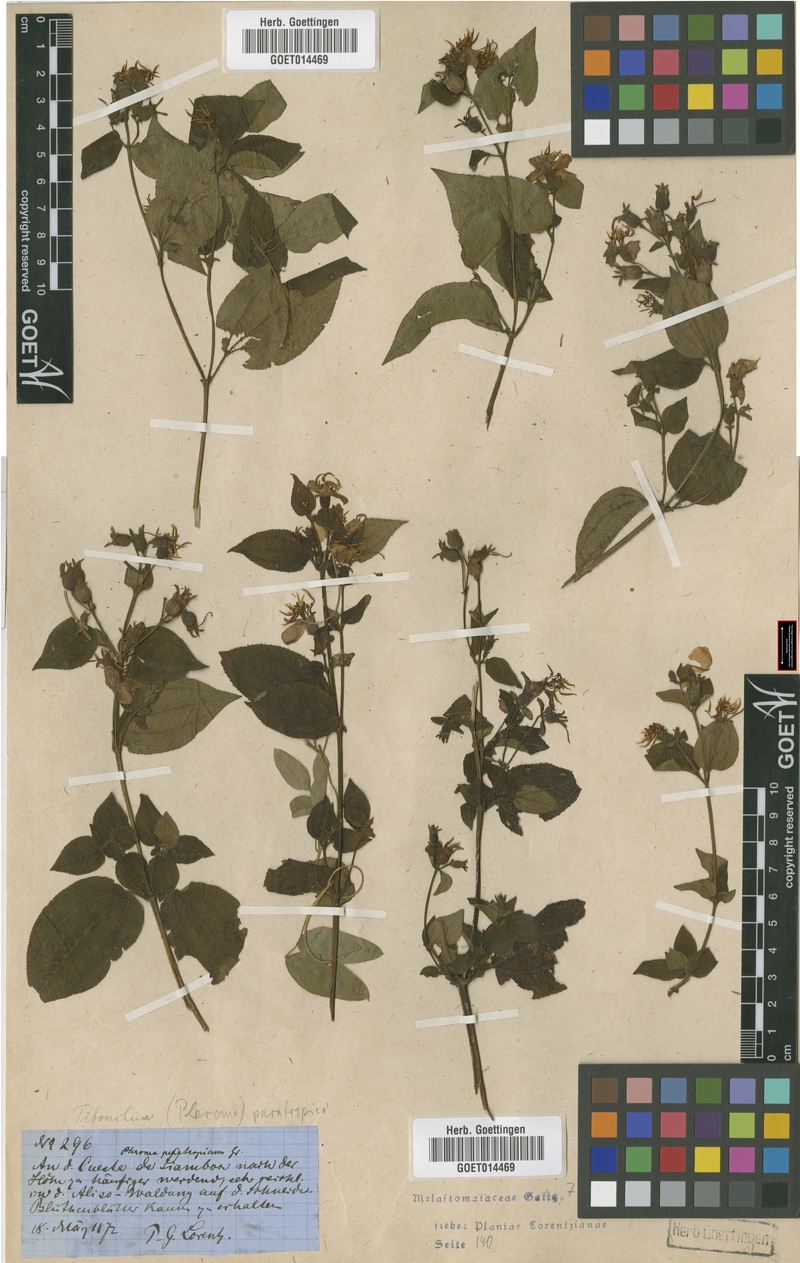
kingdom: Plantae
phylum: Tracheophyta
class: Magnoliopsida
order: Myrtales
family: Melastomataceae
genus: Chaetogastra
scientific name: Chaetogastra paratropica
